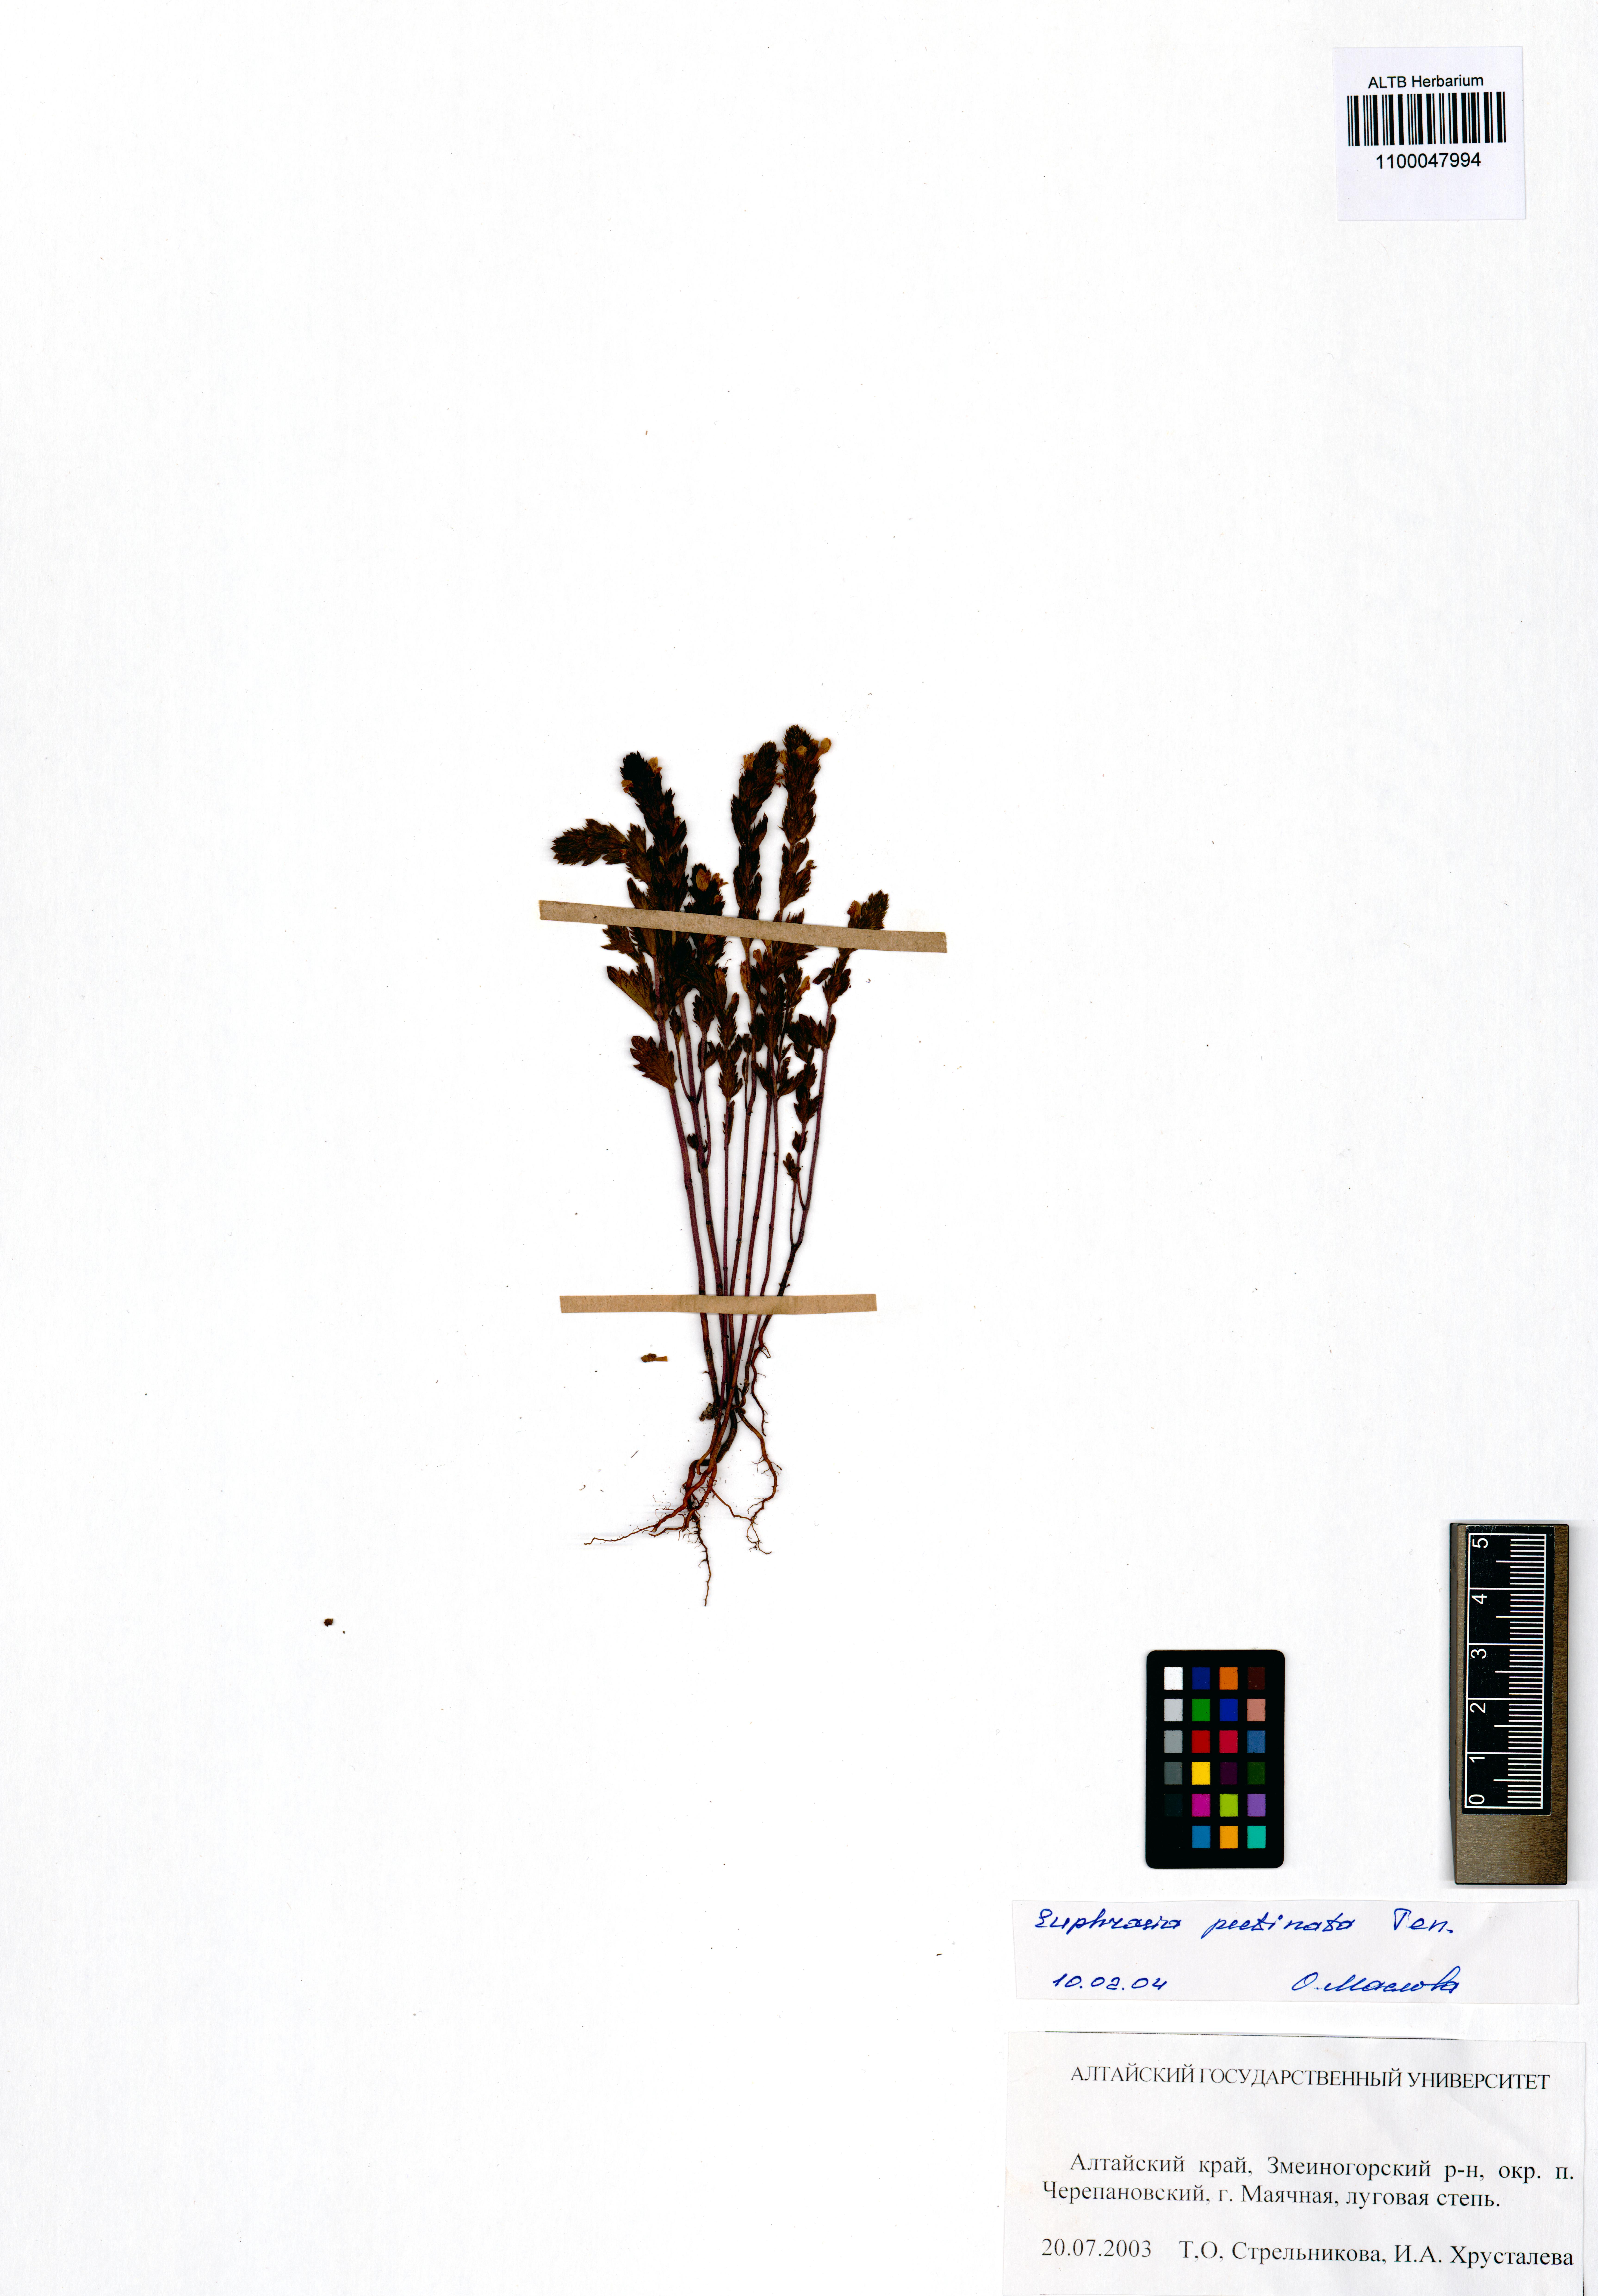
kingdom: Plantae
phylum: Tracheophyta
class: Magnoliopsida
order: Lamiales
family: Orobanchaceae
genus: Euphrasia
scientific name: Euphrasia pectinata
